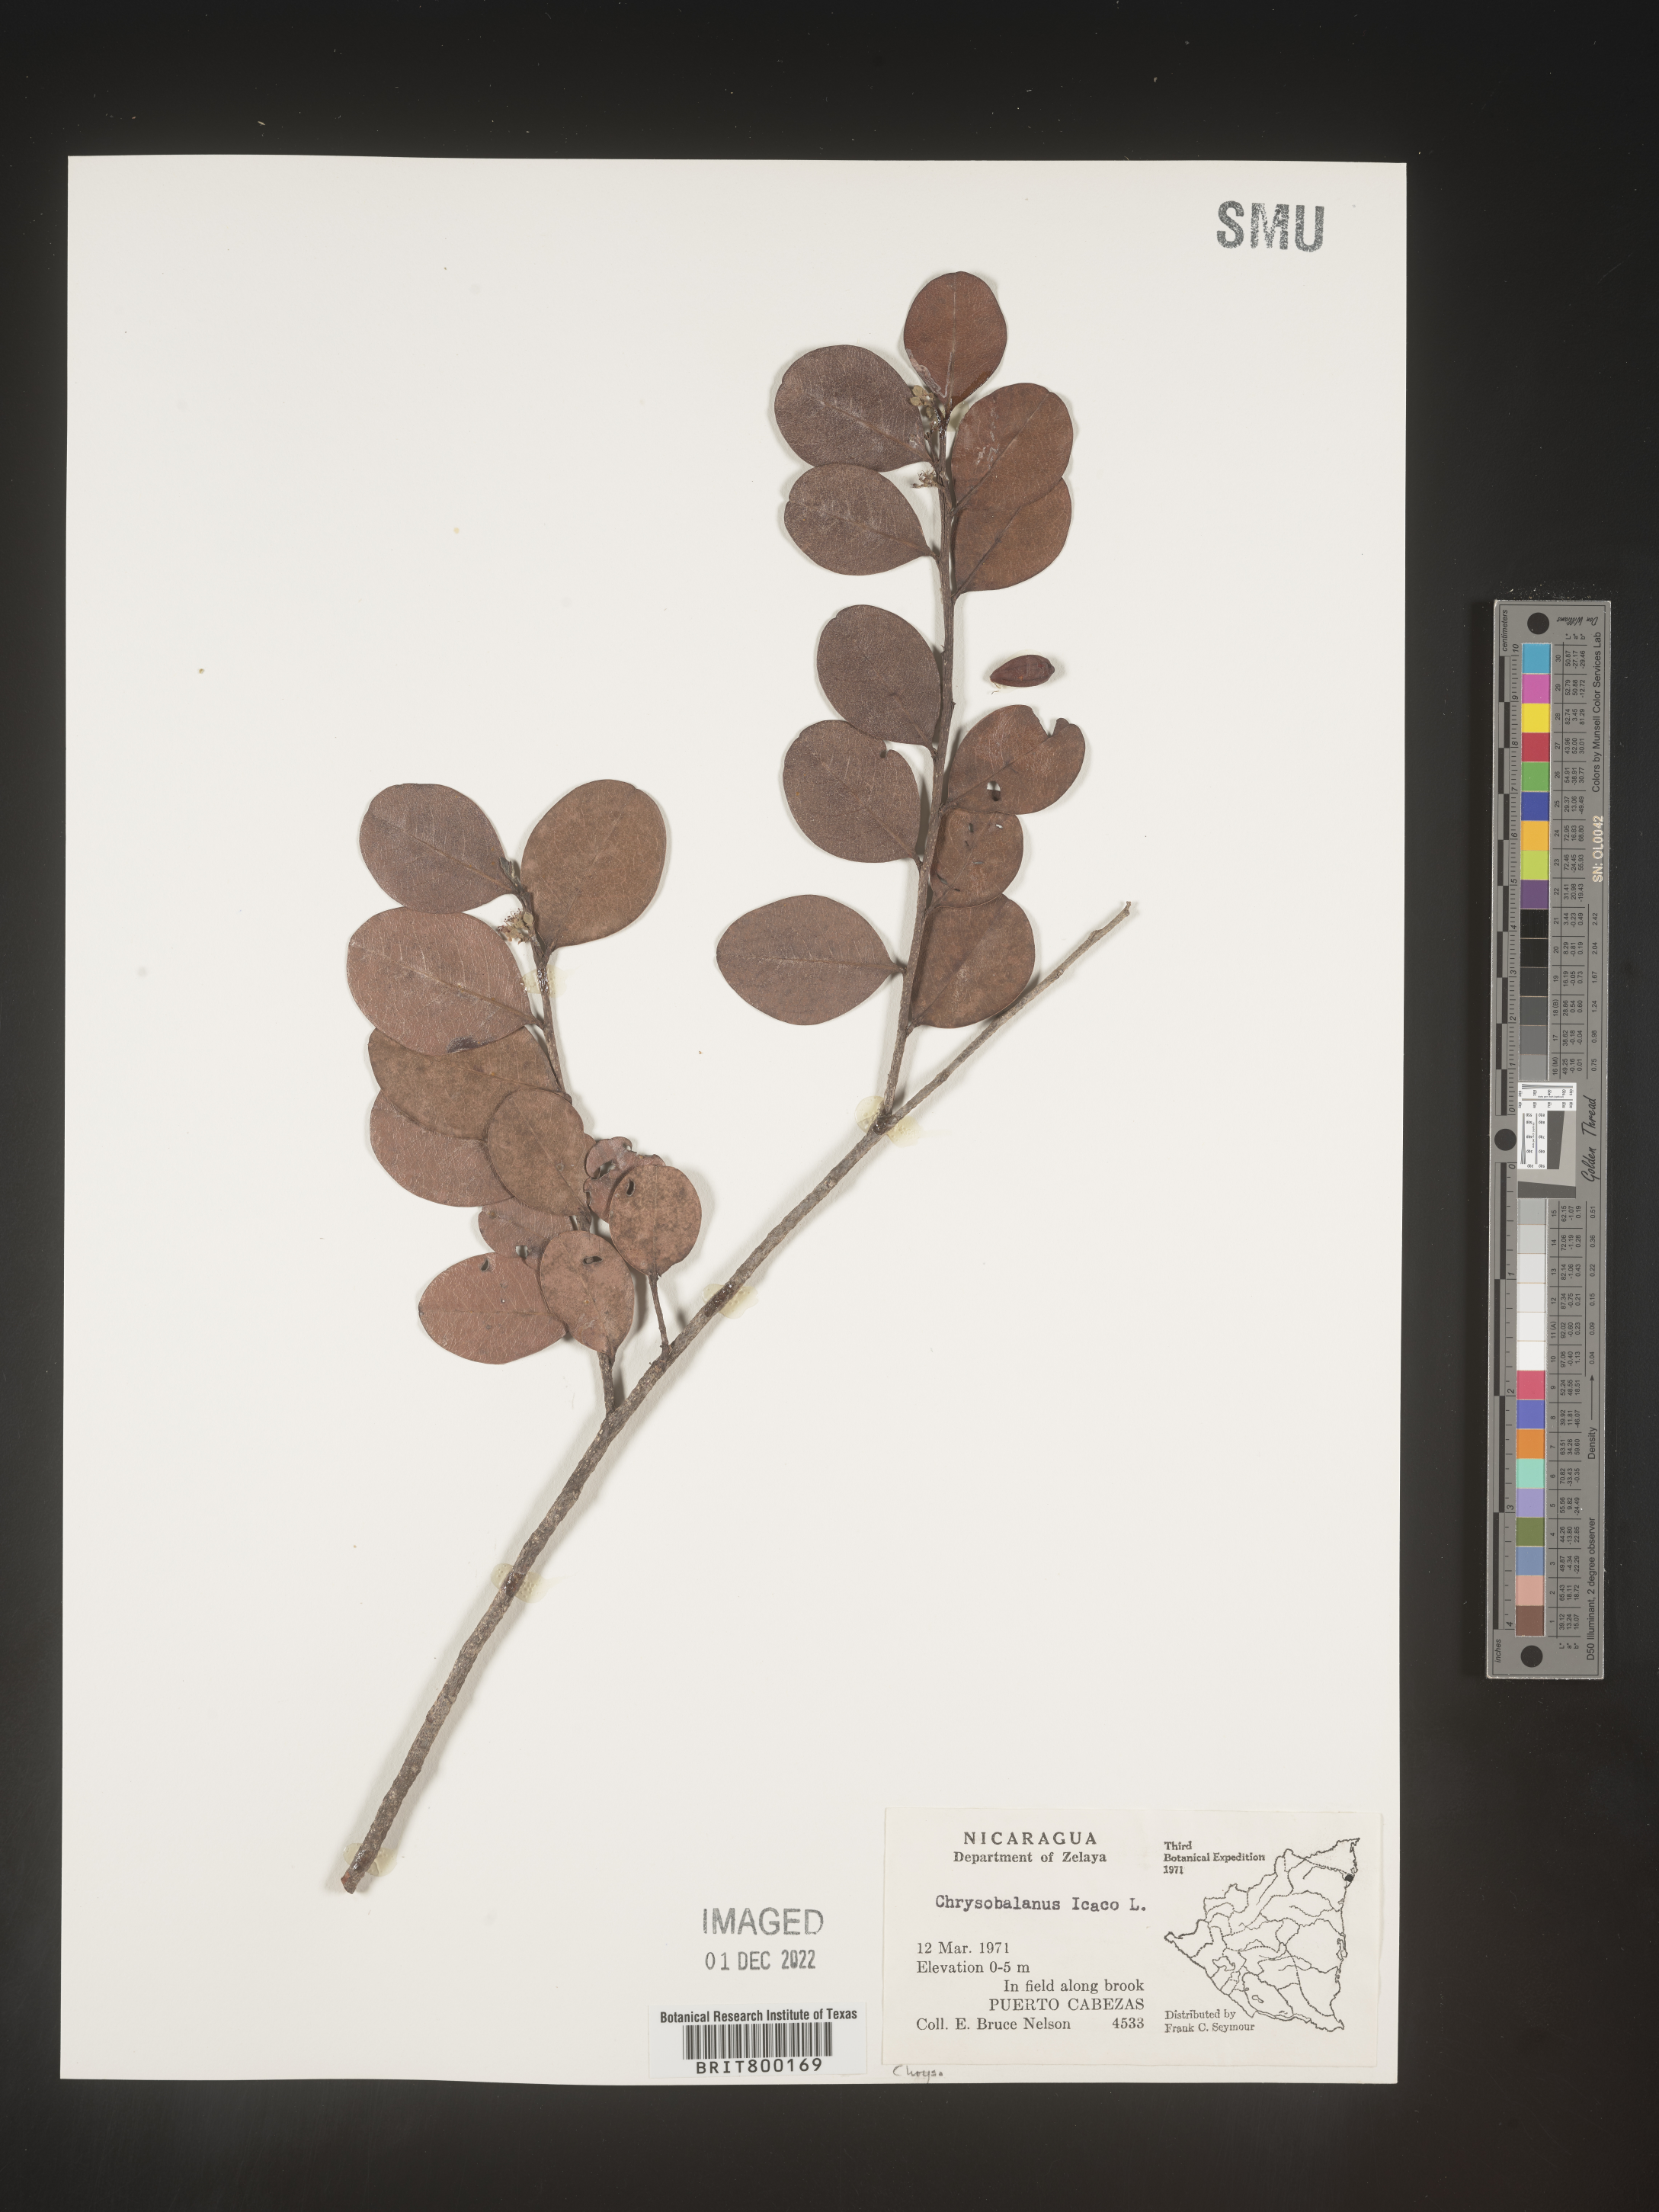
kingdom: Plantae
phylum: Tracheophyta
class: Magnoliopsida
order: Malpighiales
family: Chrysobalanaceae
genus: Chrysobalanus
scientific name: Chrysobalanus
